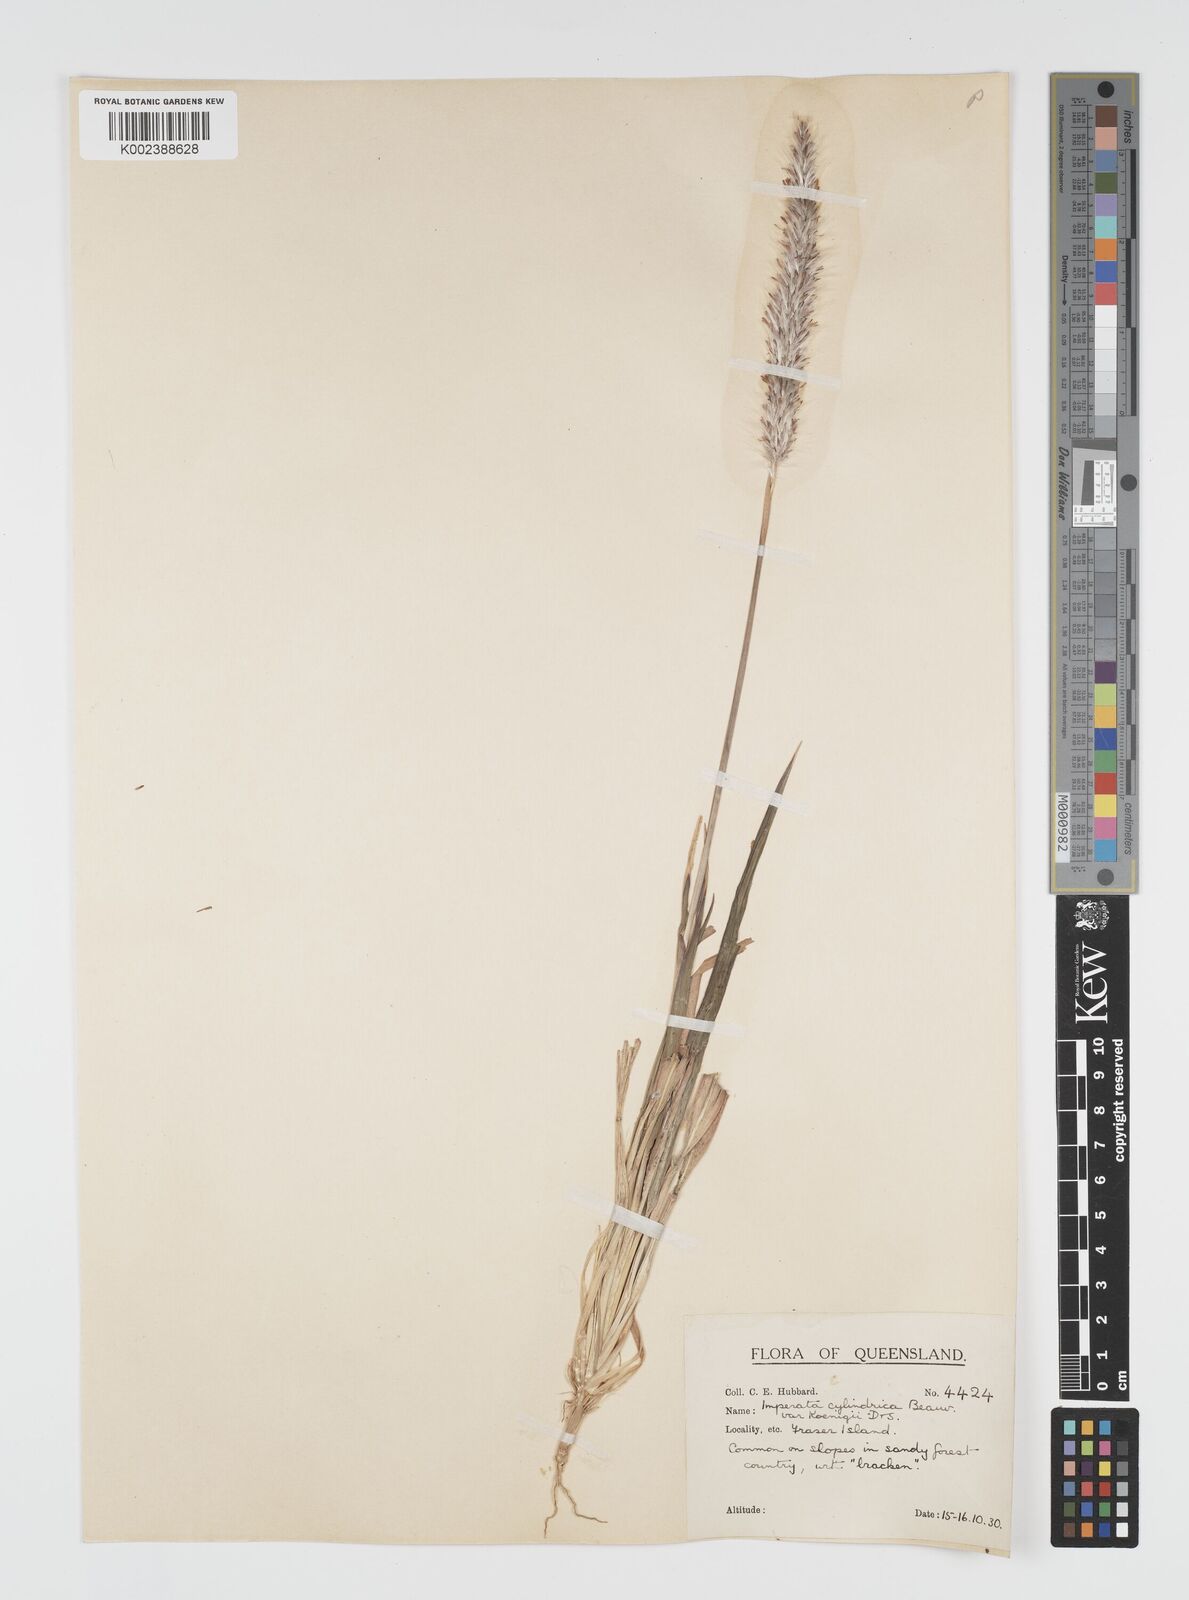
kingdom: Plantae
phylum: Tracheophyta
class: Liliopsida
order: Poales
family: Poaceae
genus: Imperata
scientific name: Imperata cylindrica
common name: Cogongrass
